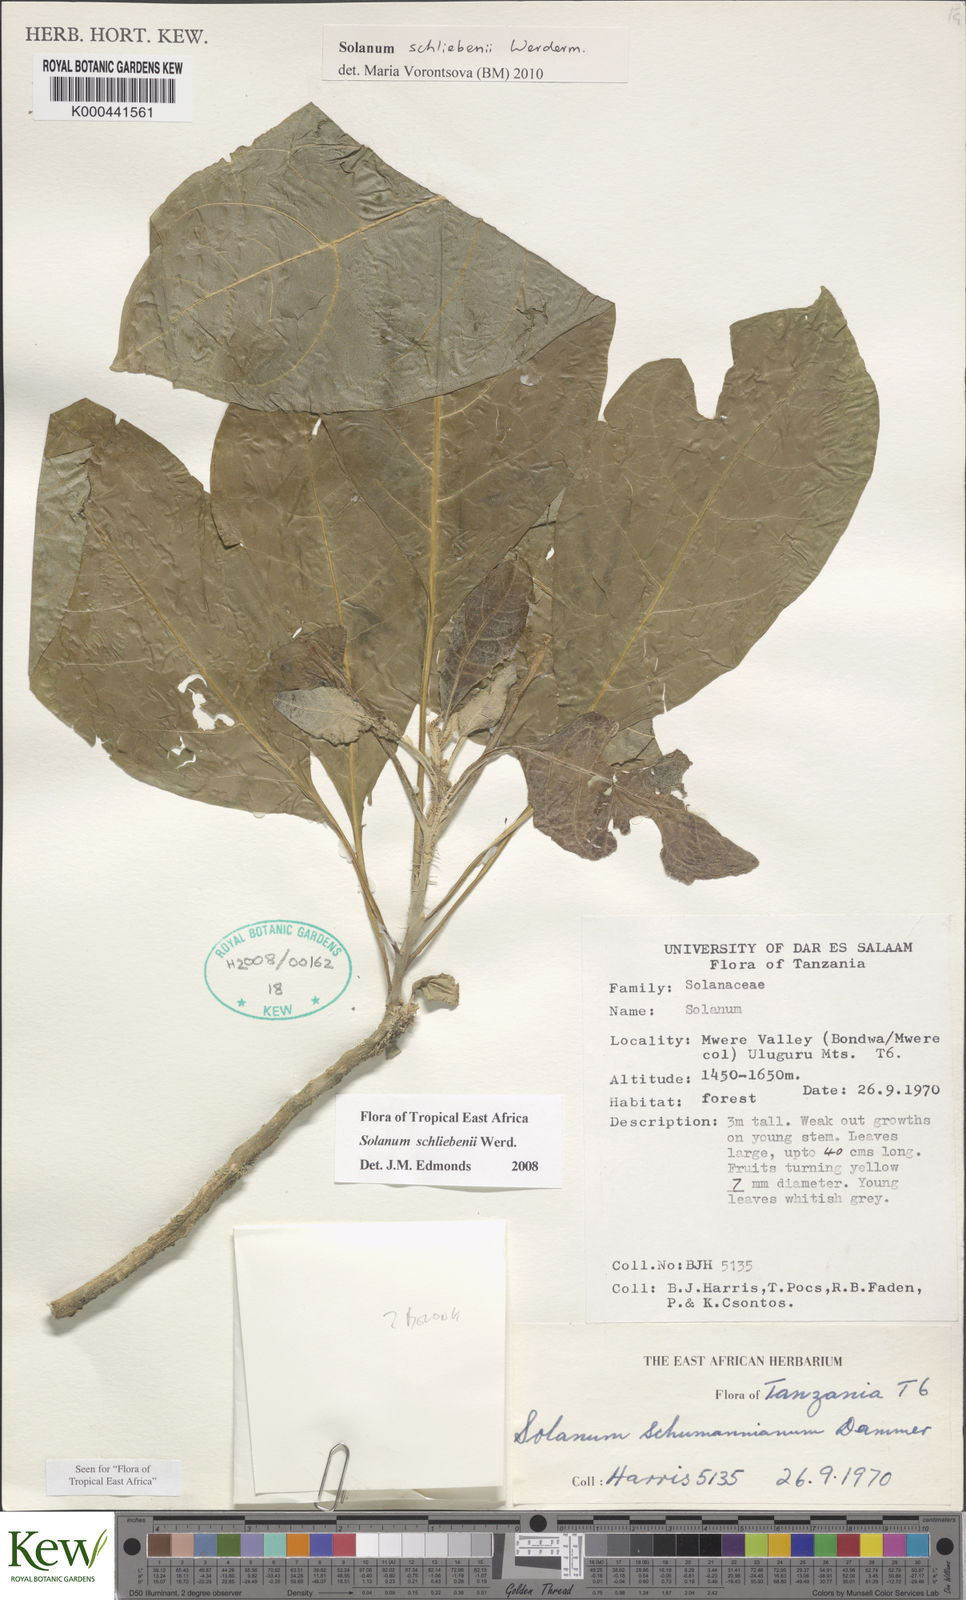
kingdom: Plantae
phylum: Tracheophyta
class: Magnoliopsida
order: Solanales
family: Solanaceae
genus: Solanum
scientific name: Solanum schliebenii
